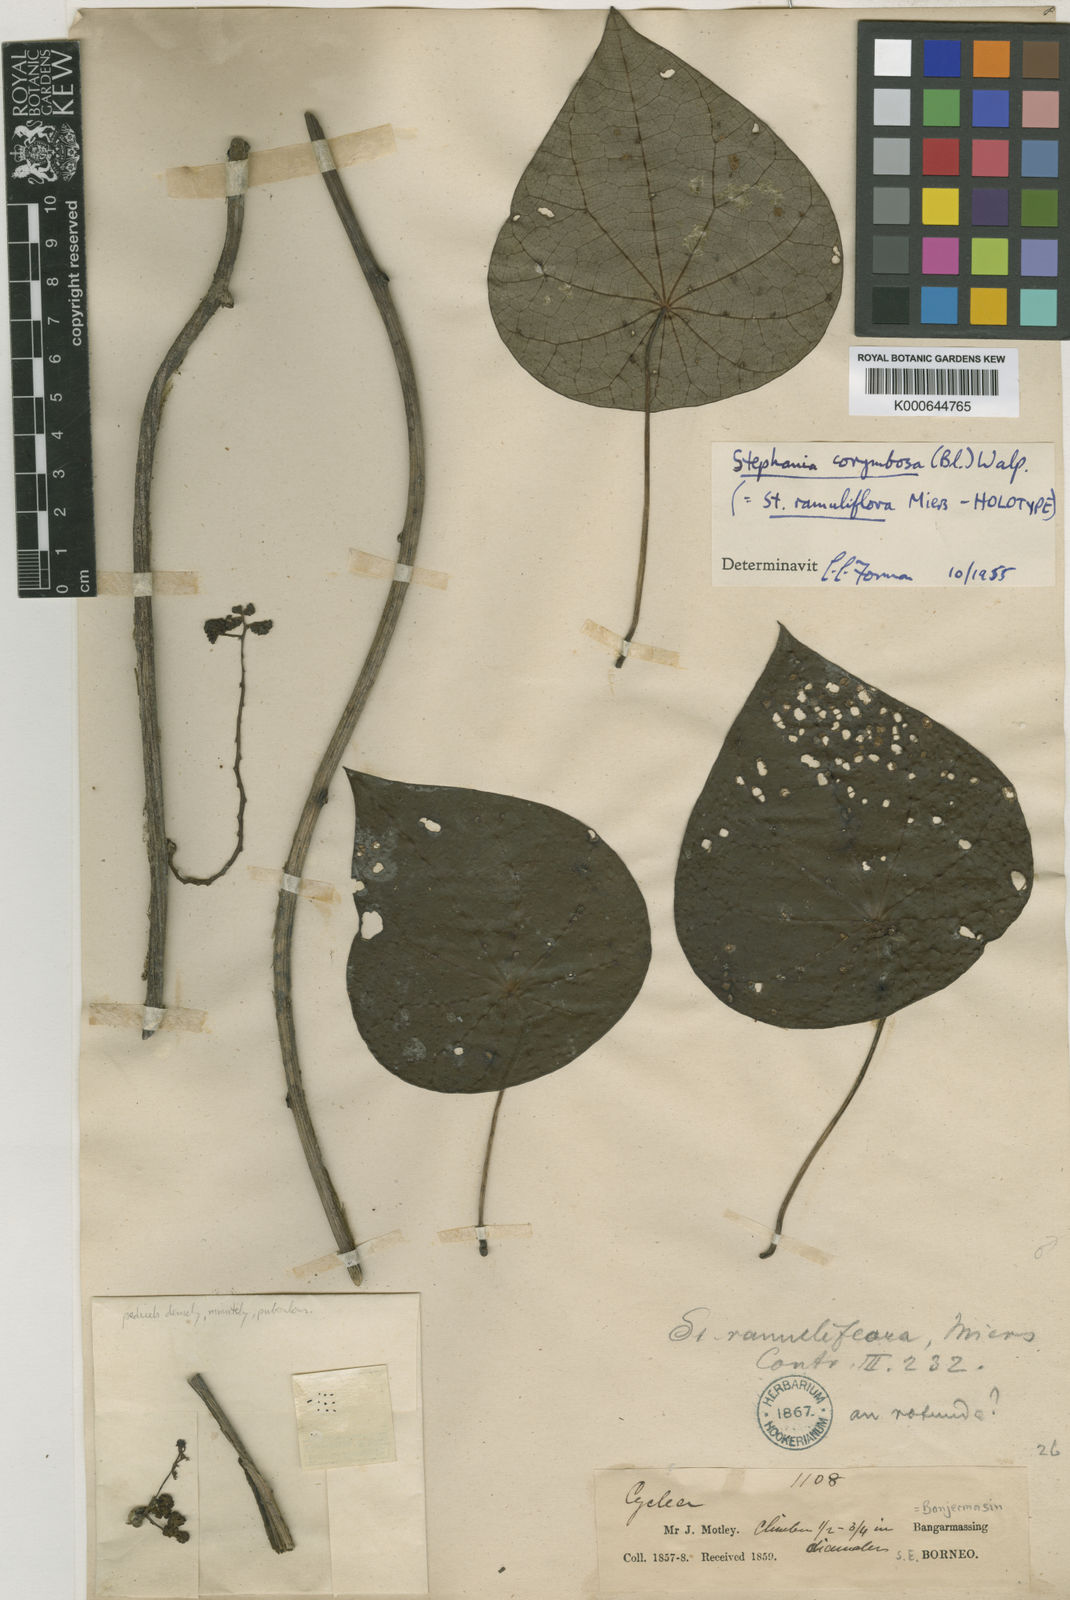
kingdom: Plantae
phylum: Tracheophyta
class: Magnoliopsida
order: Ranunculales
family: Menispermaceae
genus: Stephania
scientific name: Stephania corymbosa
